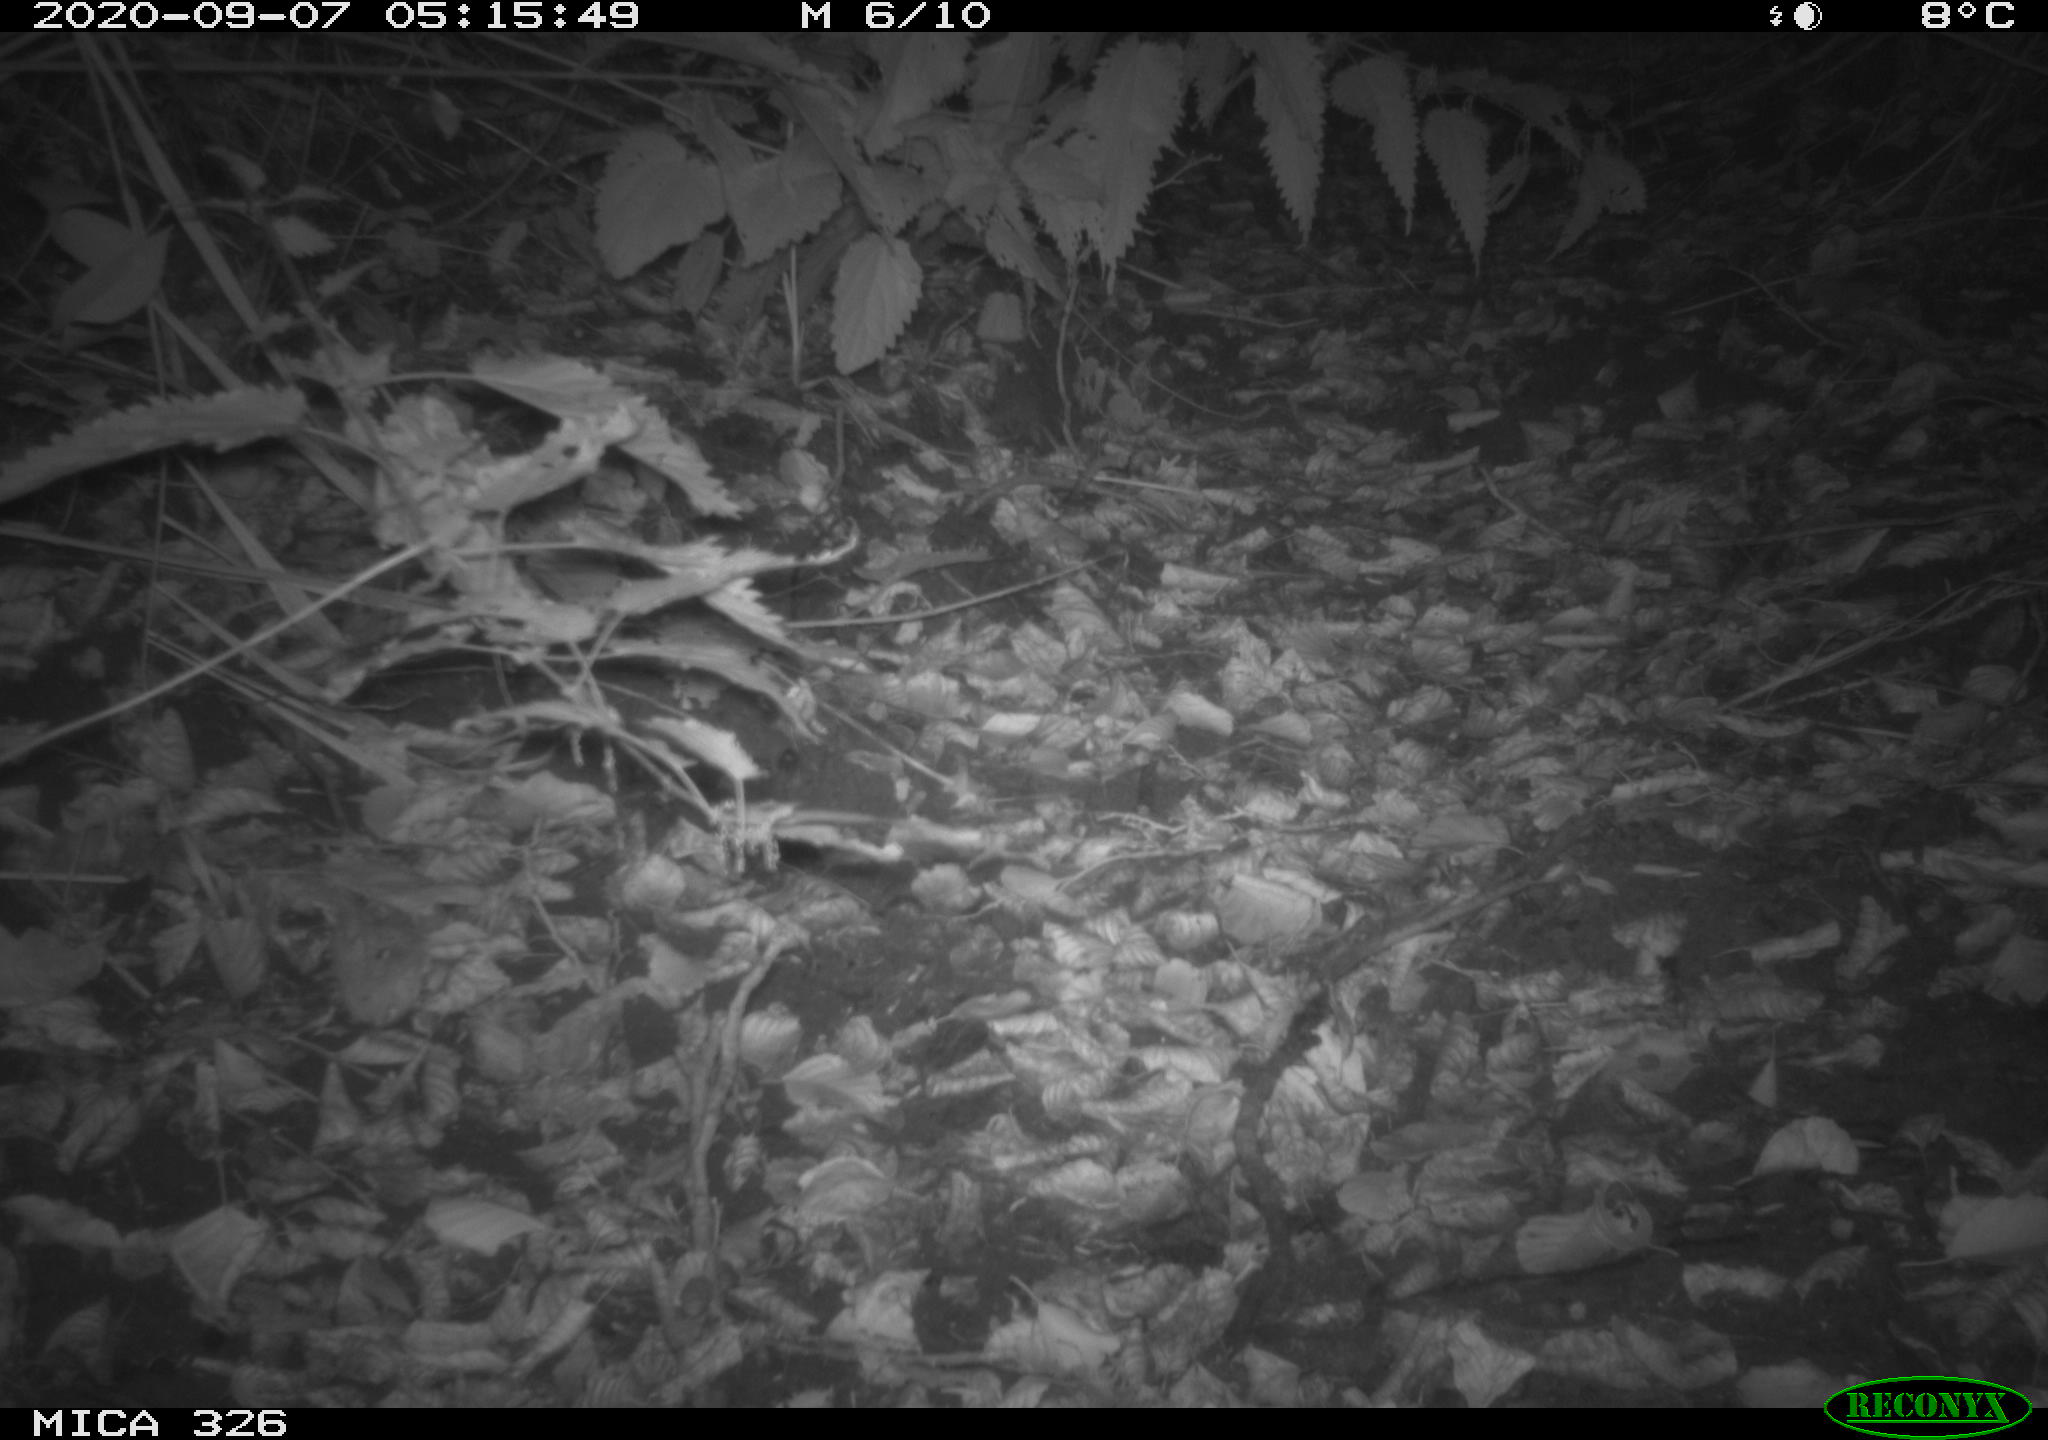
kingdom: Animalia
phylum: Chordata
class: Mammalia
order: Rodentia
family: Myocastoridae
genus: Myocastor
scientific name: Myocastor coypus
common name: Coypu
